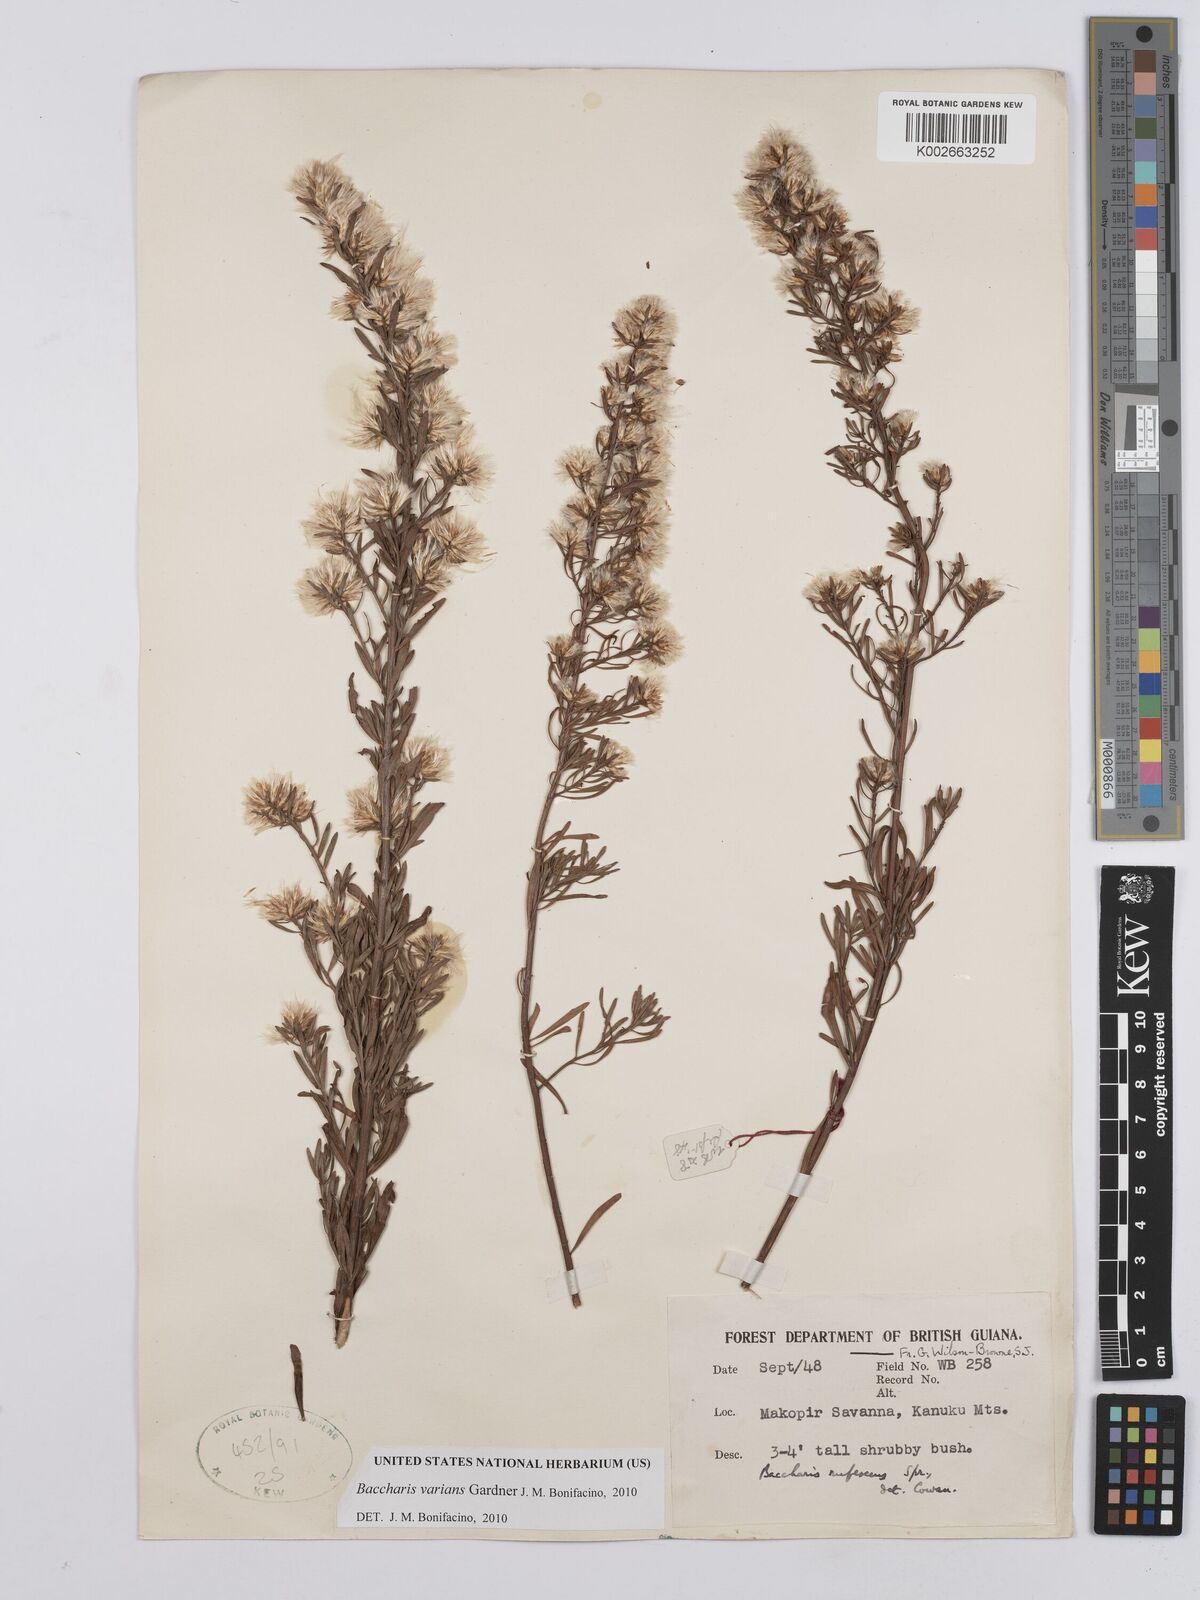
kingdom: Plantae
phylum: Tracheophyta
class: Magnoliopsida
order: Asterales
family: Asteraceae
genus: Baccharis
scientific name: Baccharis varians
